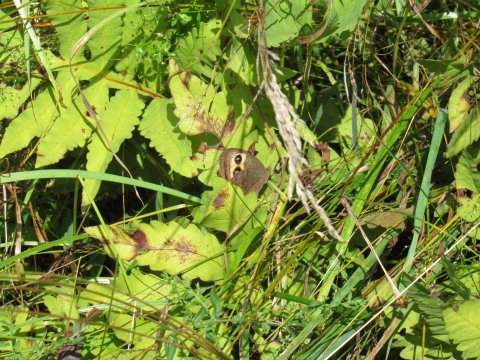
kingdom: Animalia
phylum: Arthropoda
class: Insecta
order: Lepidoptera
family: Nymphalidae
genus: Cercyonis
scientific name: Cercyonis pegala
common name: Common Wood-Nymph
